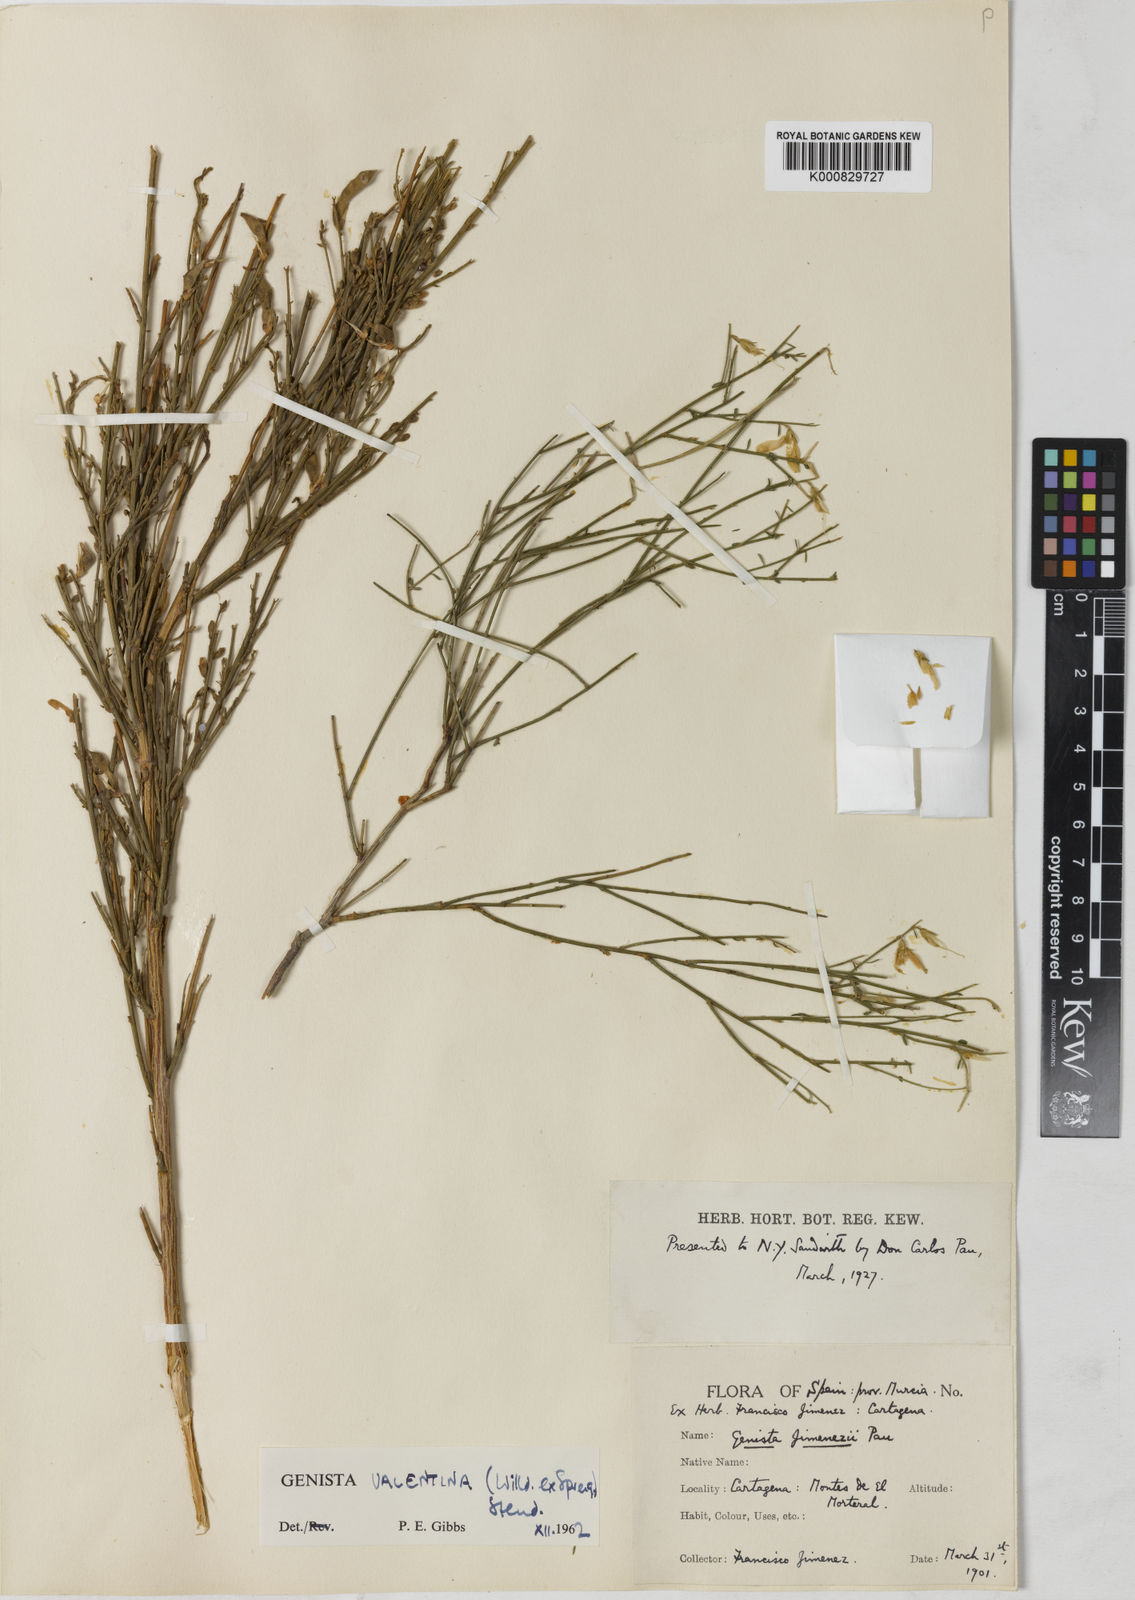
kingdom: Plantae
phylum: Tracheophyta
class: Magnoliopsida
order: Fabales
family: Fabaceae
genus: Genista
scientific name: Genista
